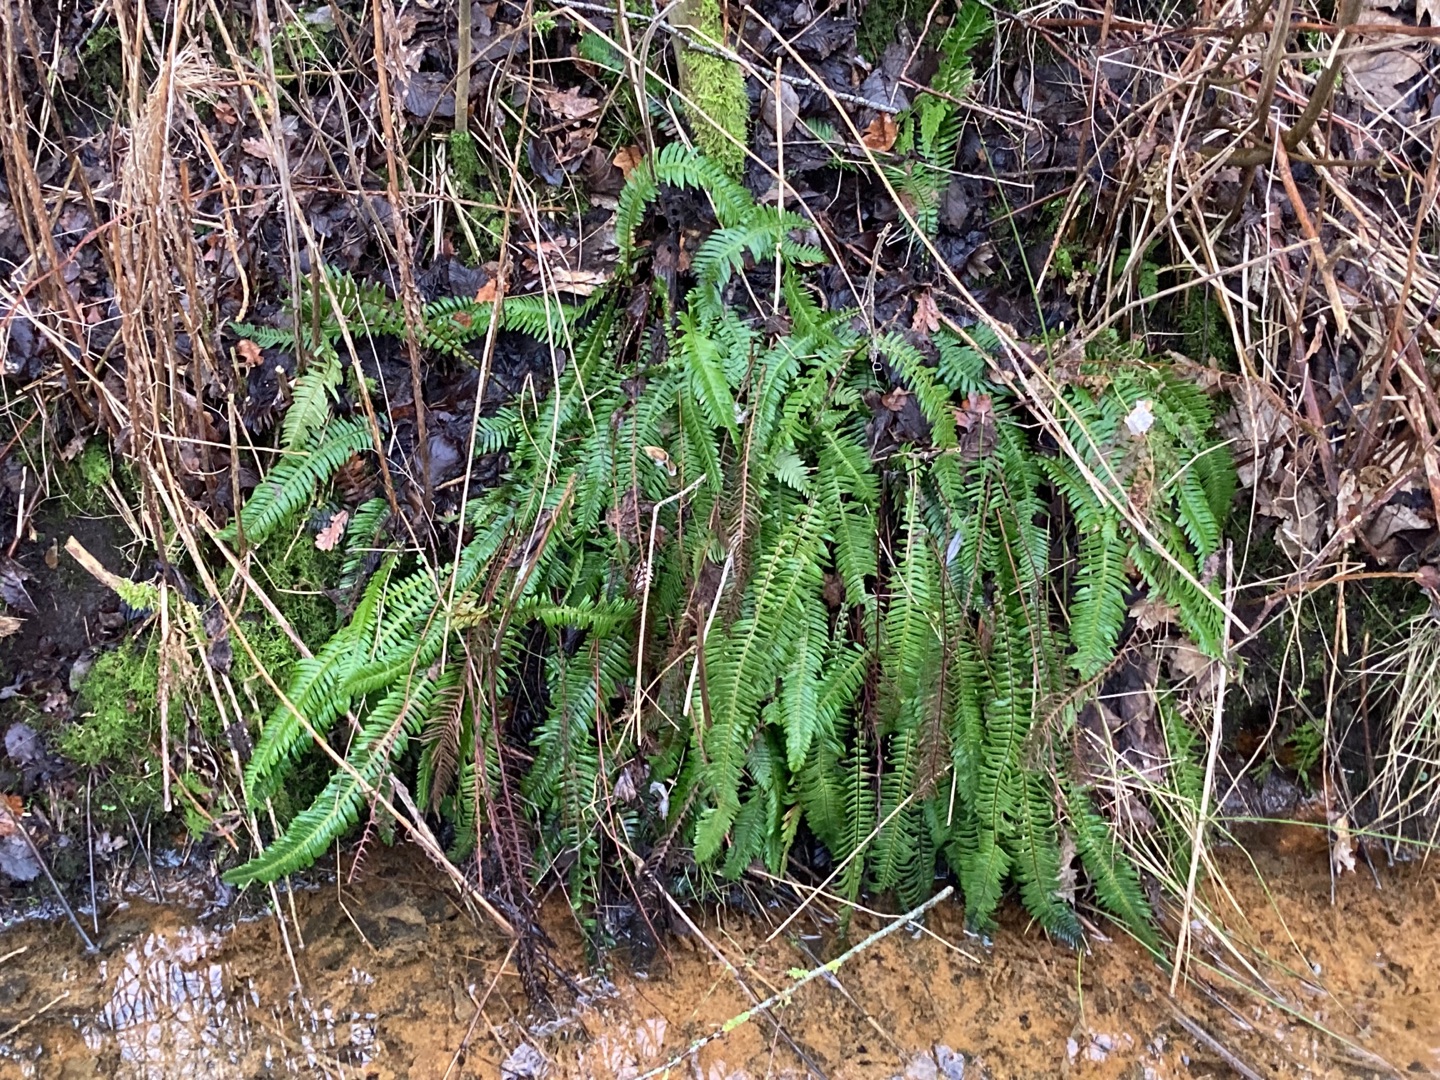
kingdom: Plantae
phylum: Tracheophyta
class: Polypodiopsida
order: Polypodiales
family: Blechnaceae
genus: Struthiopteris
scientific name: Struthiopteris spicant
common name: Kambregne
